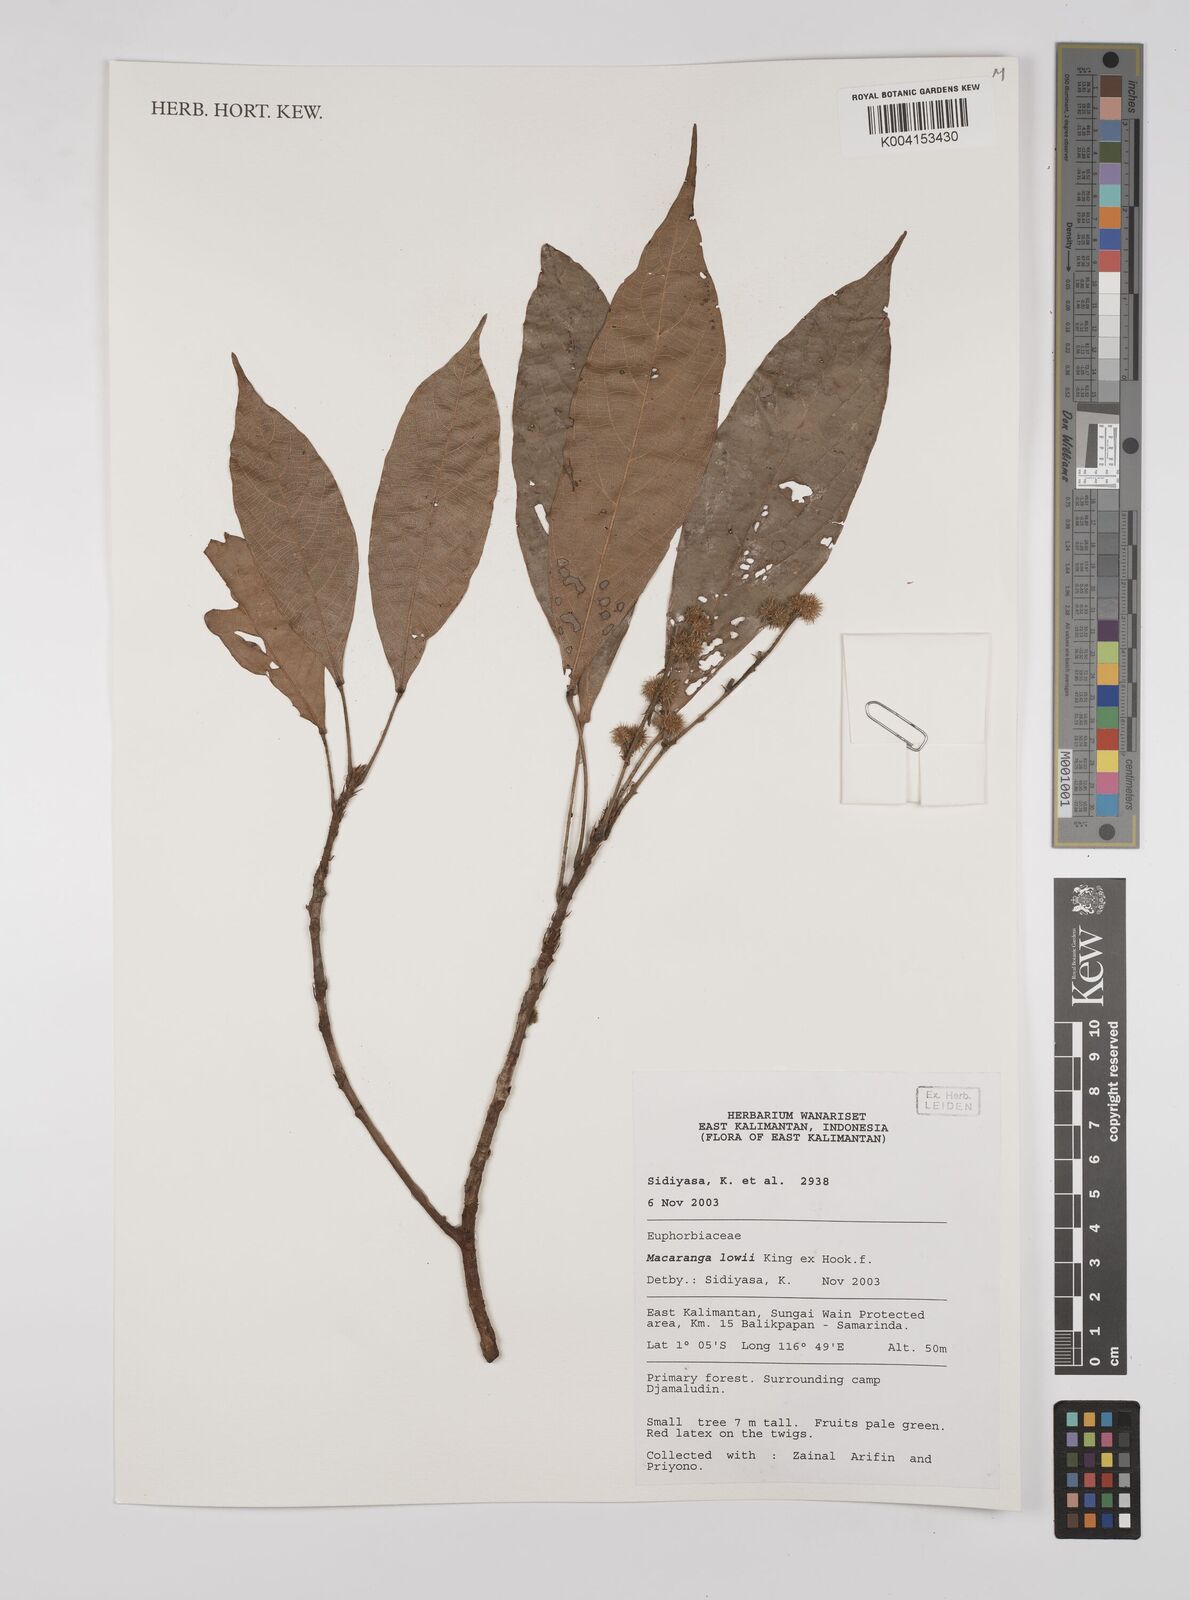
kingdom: Plantae
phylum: Tracheophyta
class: Magnoliopsida
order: Malpighiales
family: Euphorbiaceae
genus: Macaranga
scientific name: Macaranga lowii
